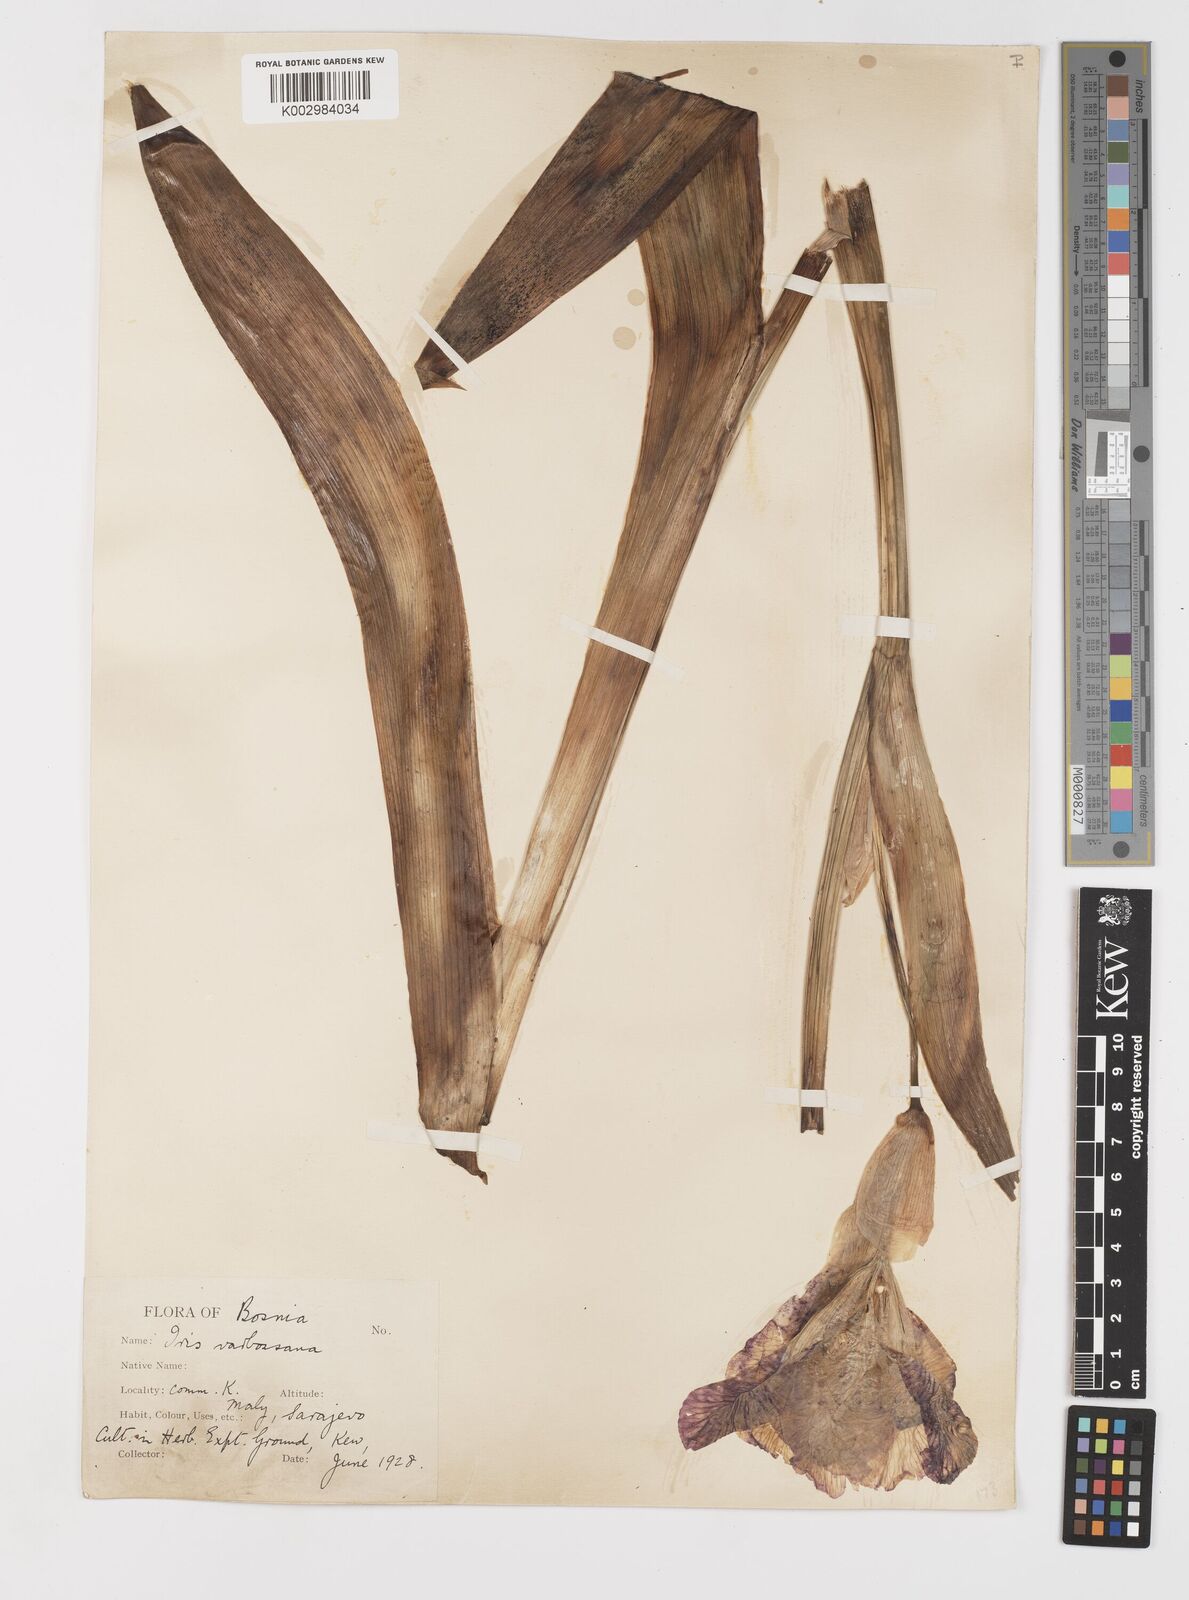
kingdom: Plantae
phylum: Tracheophyta
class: Liliopsida
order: Asparagales
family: Iridaceae
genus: Iris
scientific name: Iris germanica
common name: German iris
